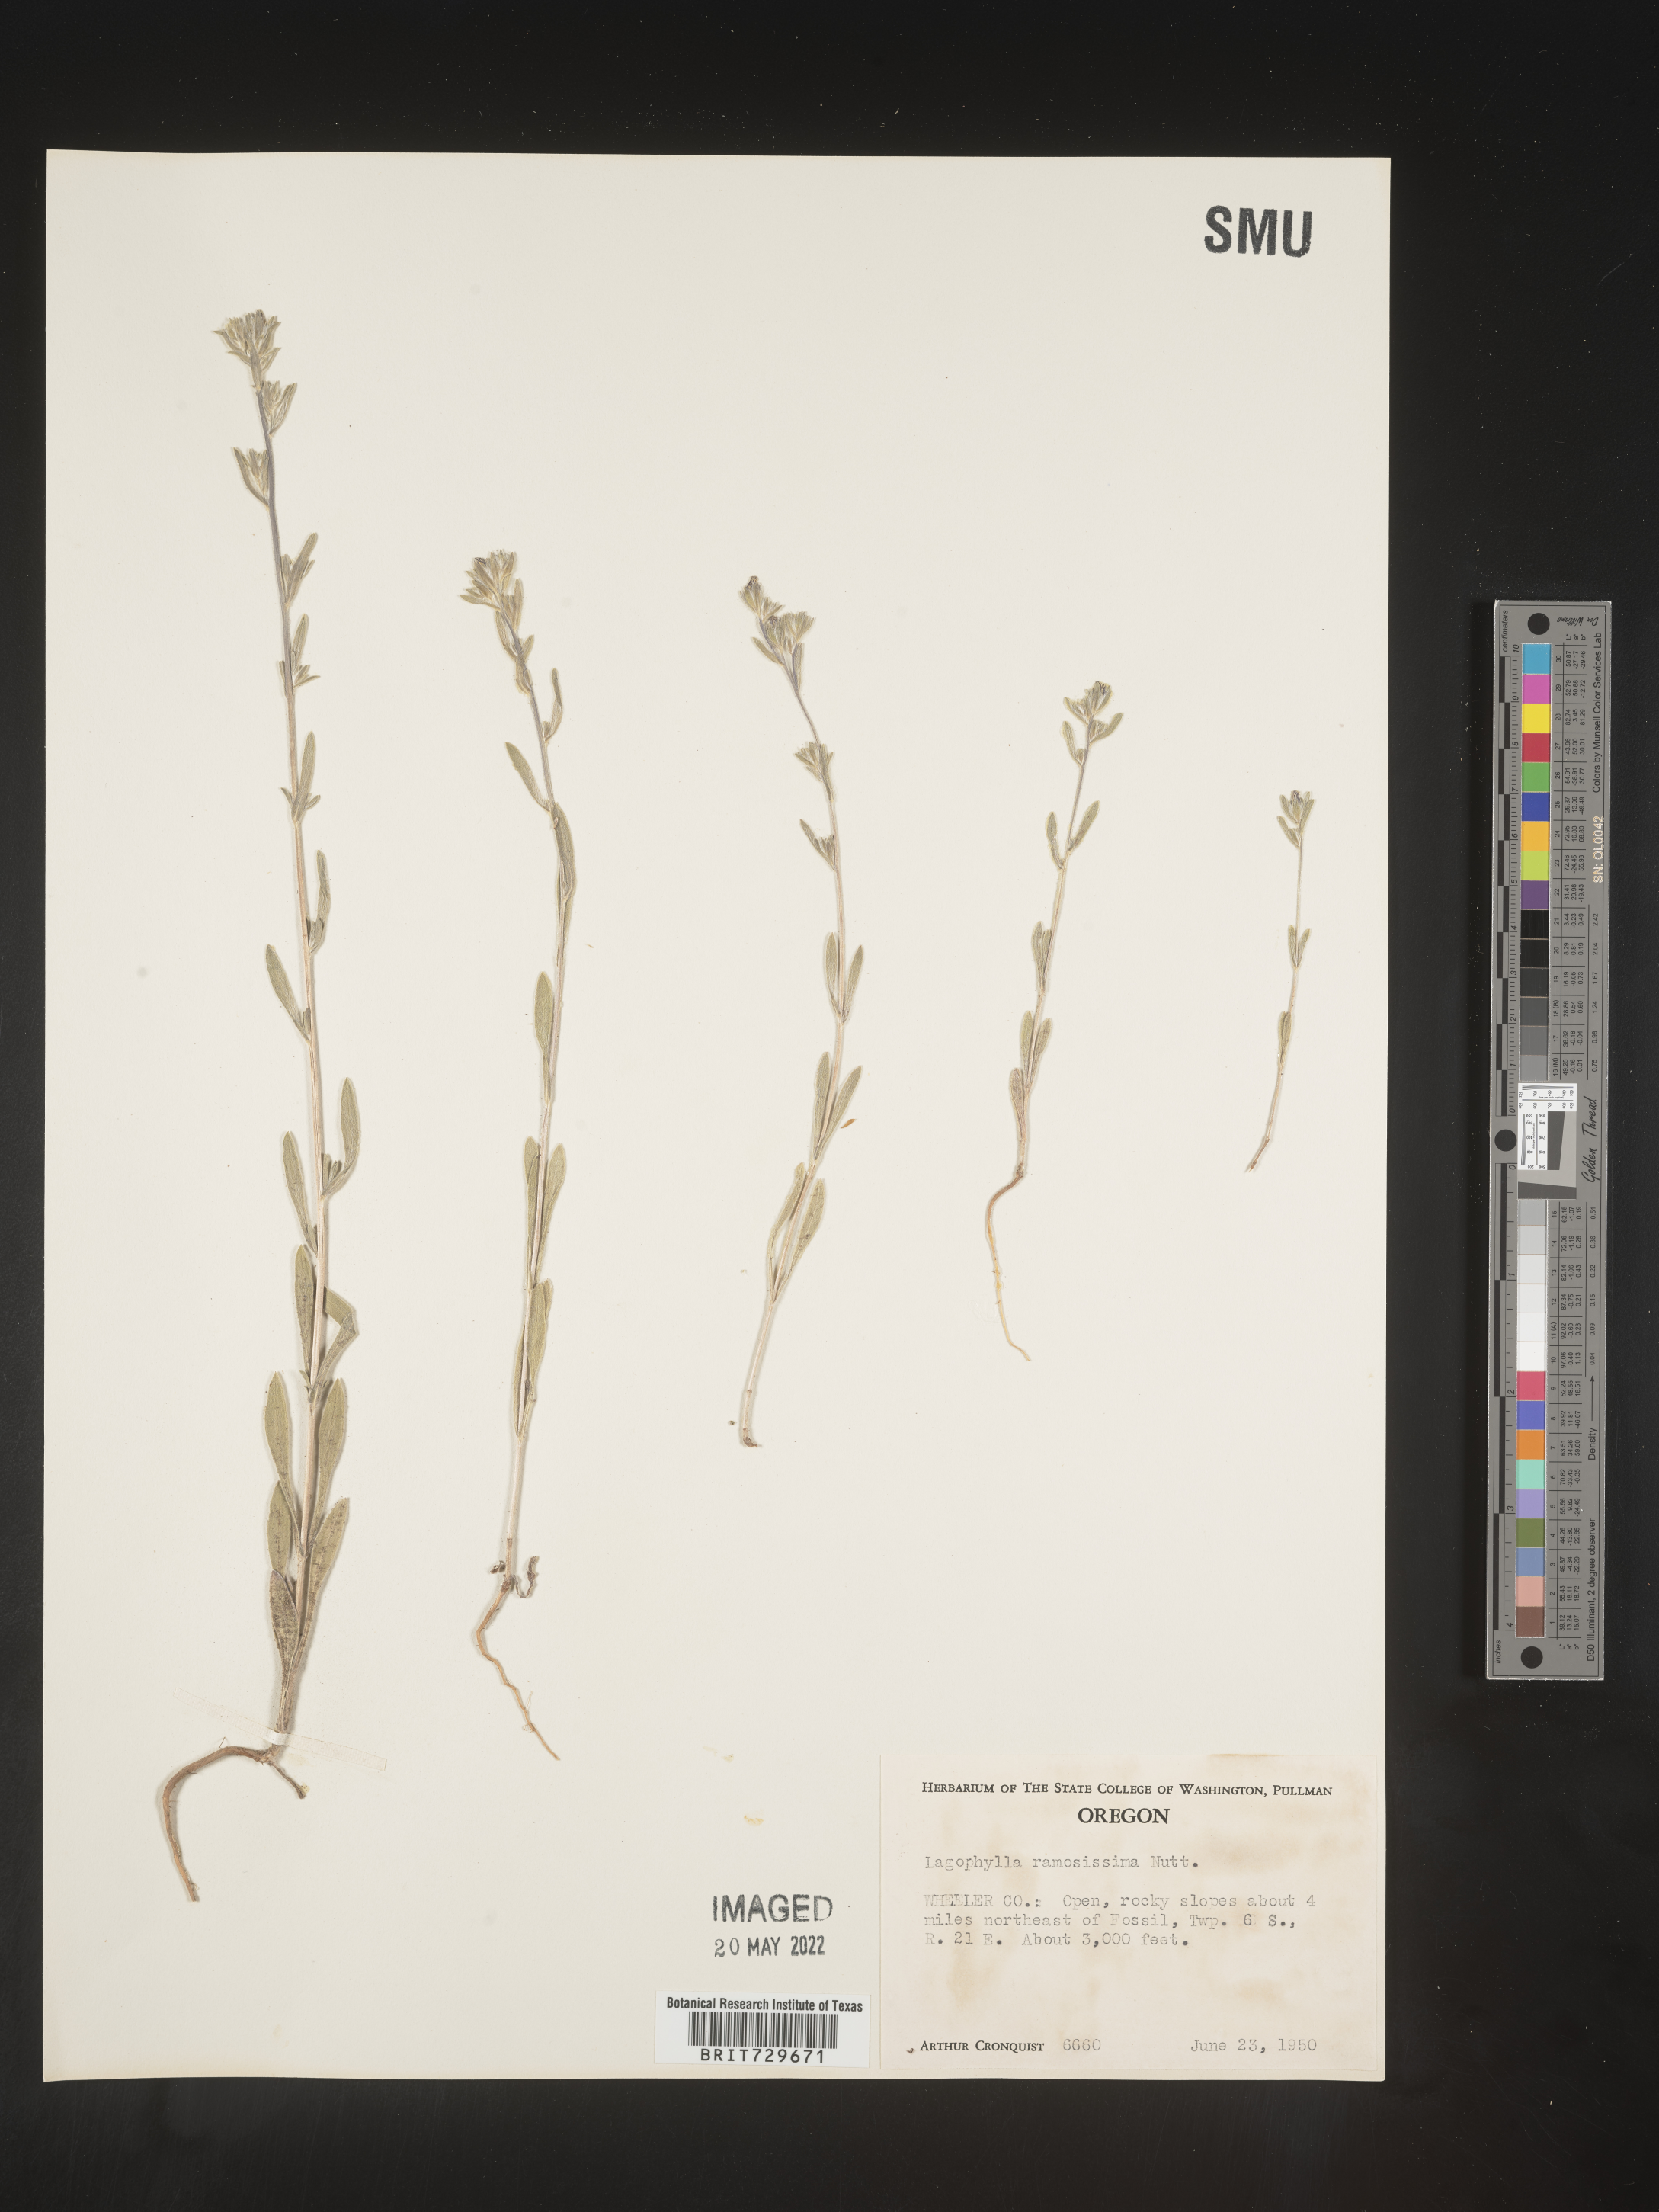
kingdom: Plantae
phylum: Tracheophyta
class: Magnoliopsida
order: Asterales
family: Asteraceae
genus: Lagophylla
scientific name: Lagophylla
